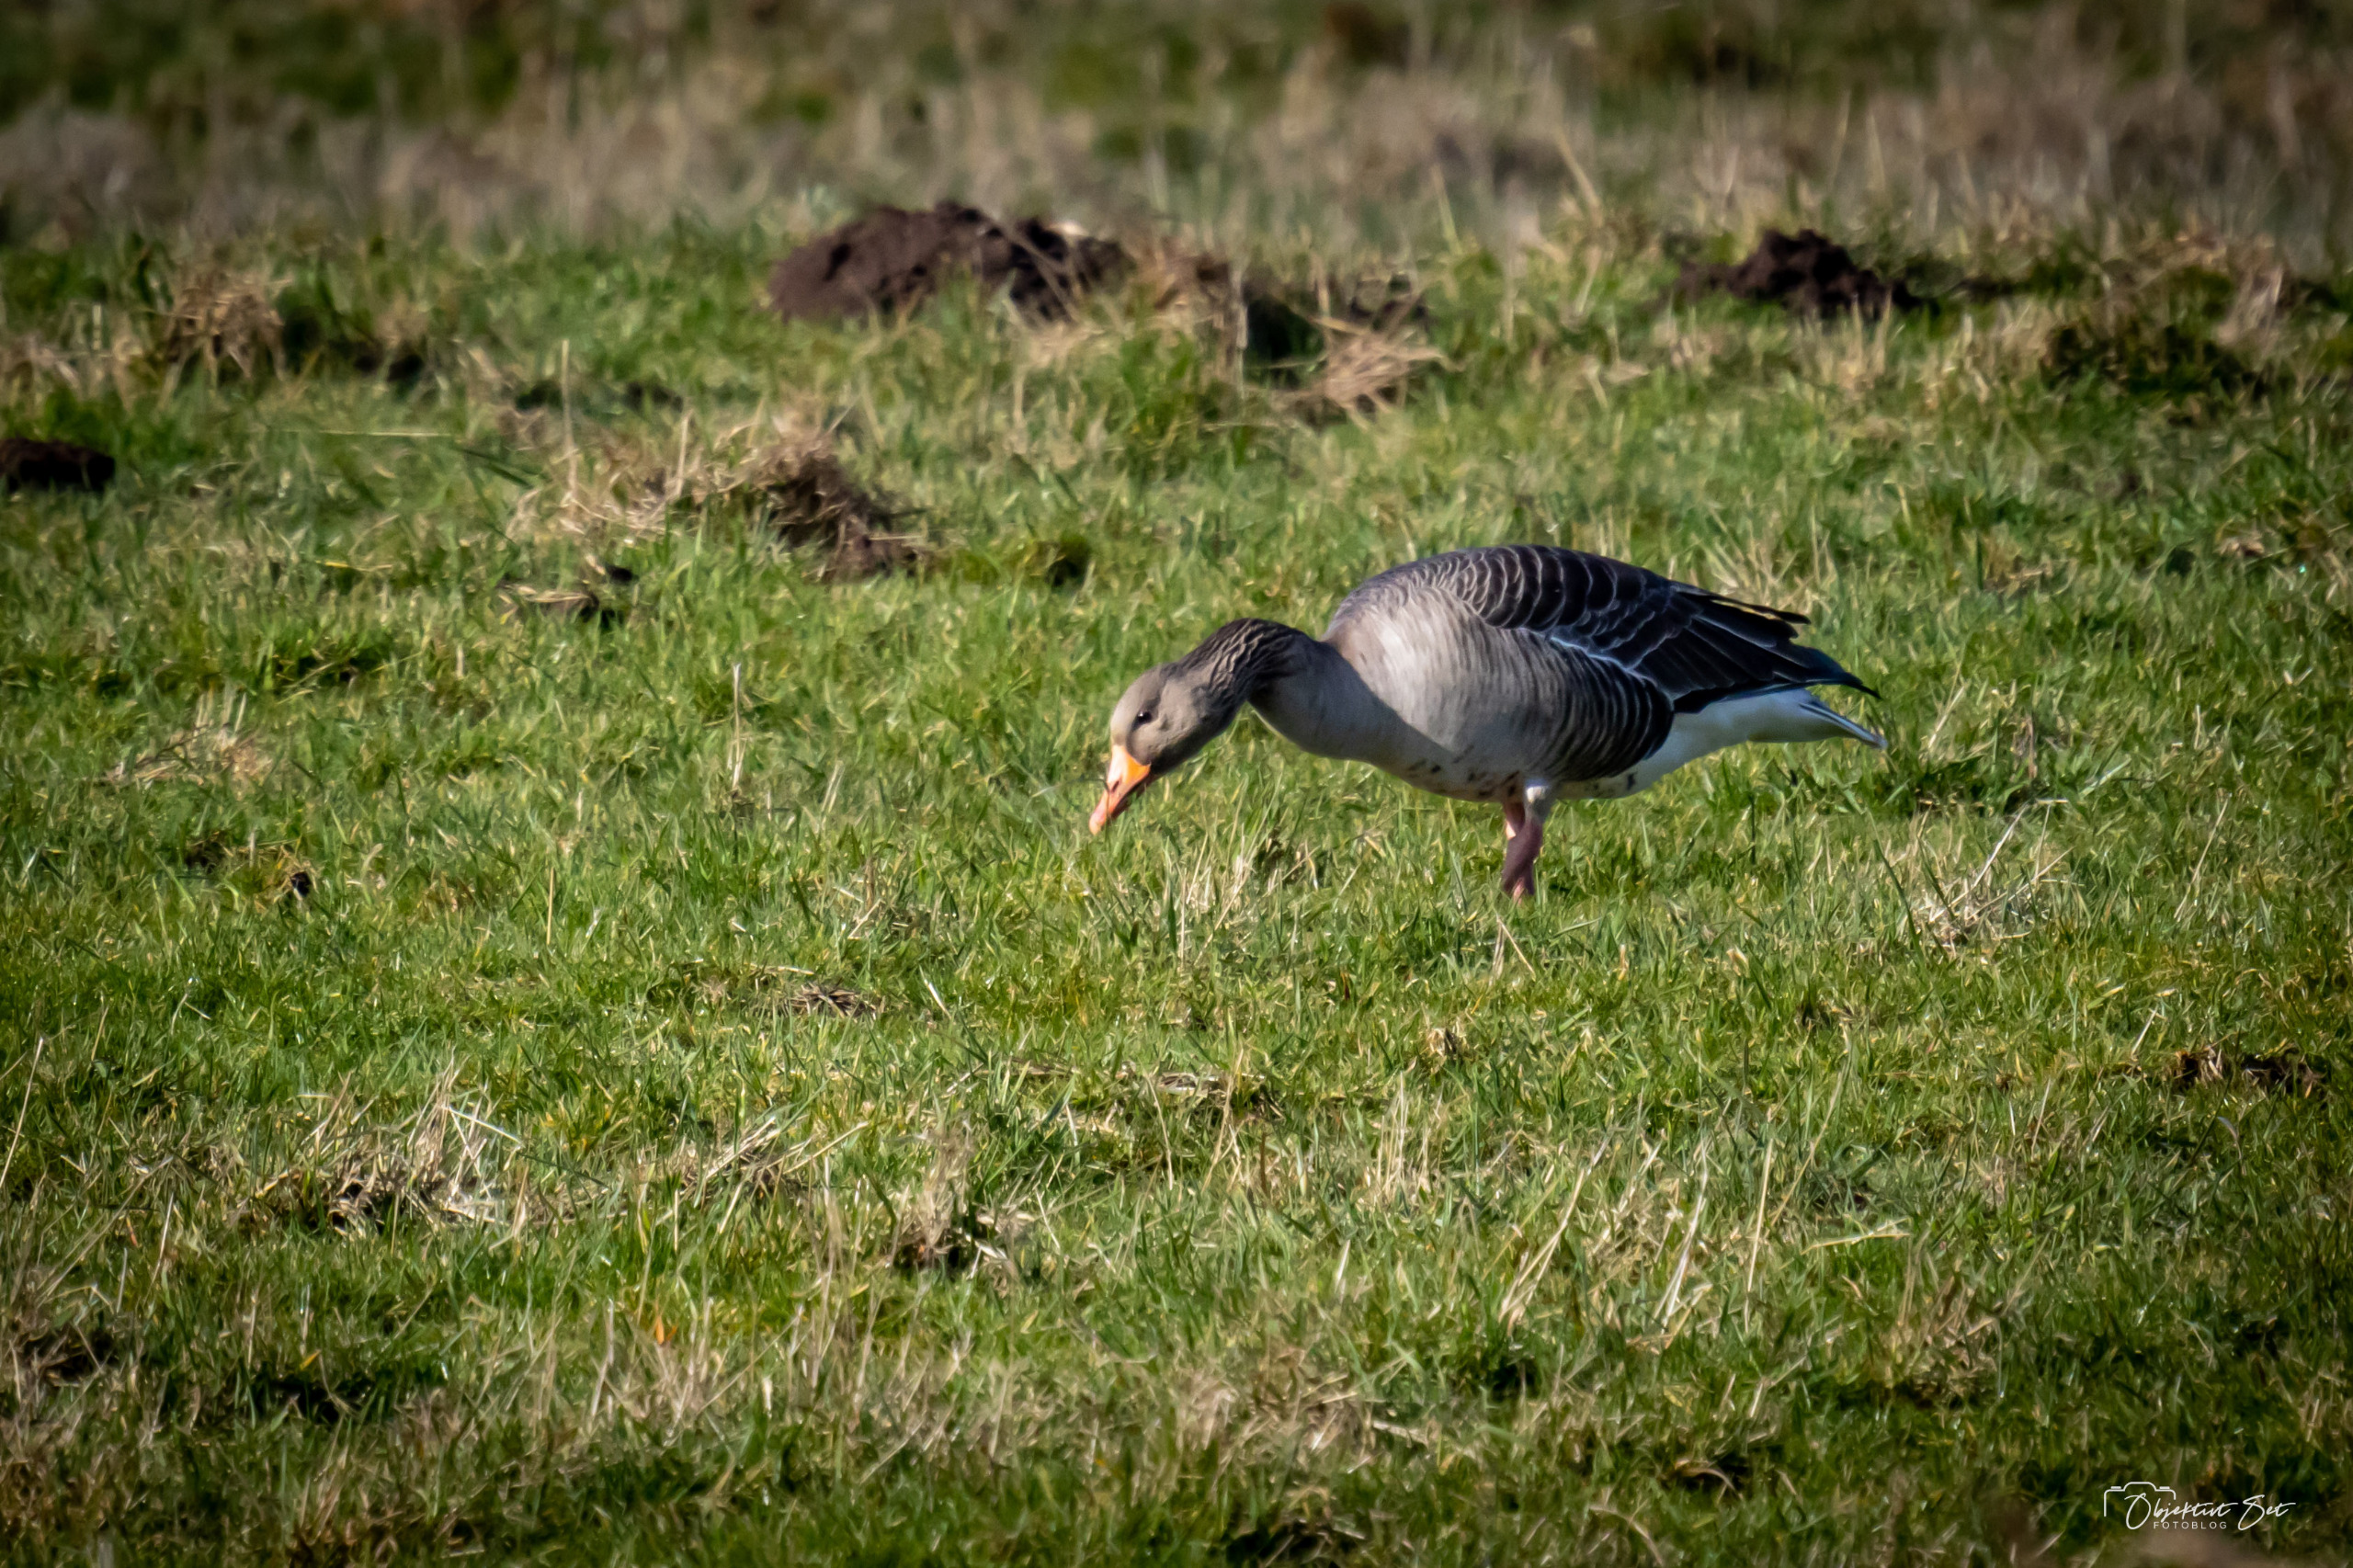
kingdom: Animalia
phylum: Chordata
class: Aves
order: Anseriformes
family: Anatidae
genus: Anser
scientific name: Anser anser
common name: Grågås
